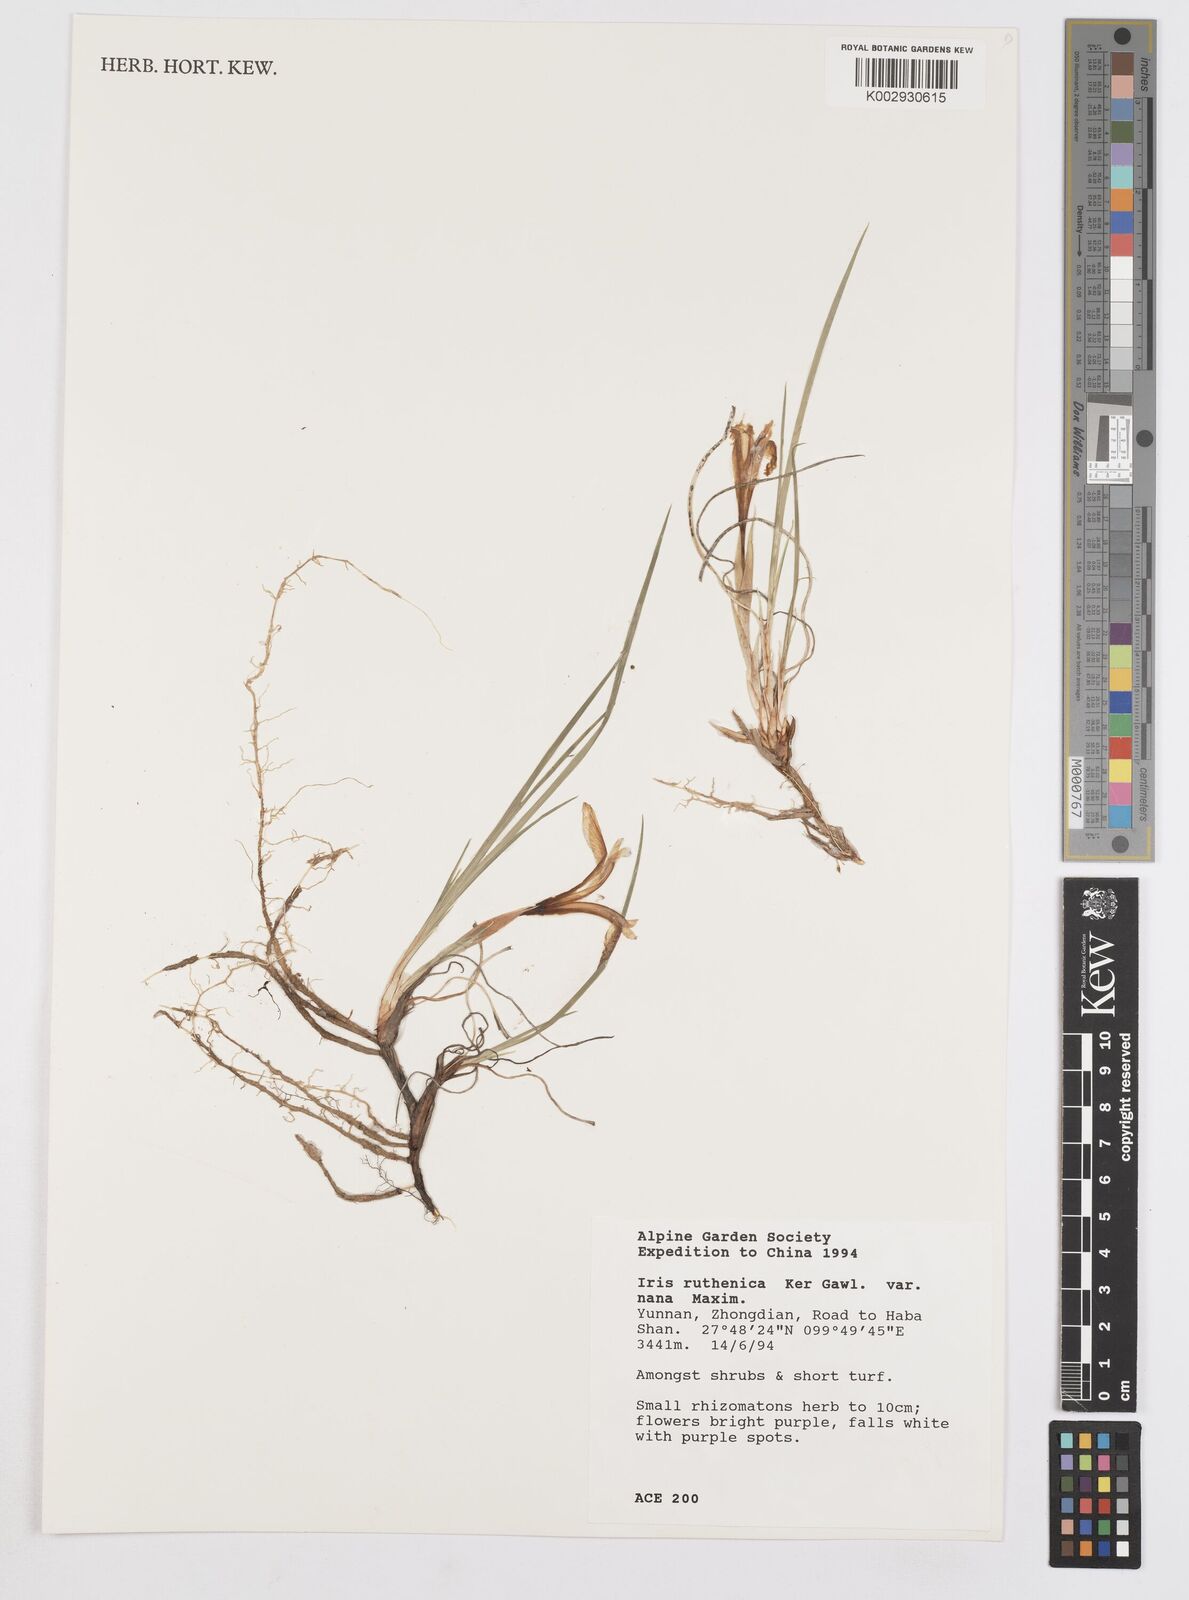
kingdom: Plantae
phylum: Tracheophyta
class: Liliopsida
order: Asparagales
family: Iridaceae
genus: Iris
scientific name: Iris ruthenica
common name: Purple-bract iris
